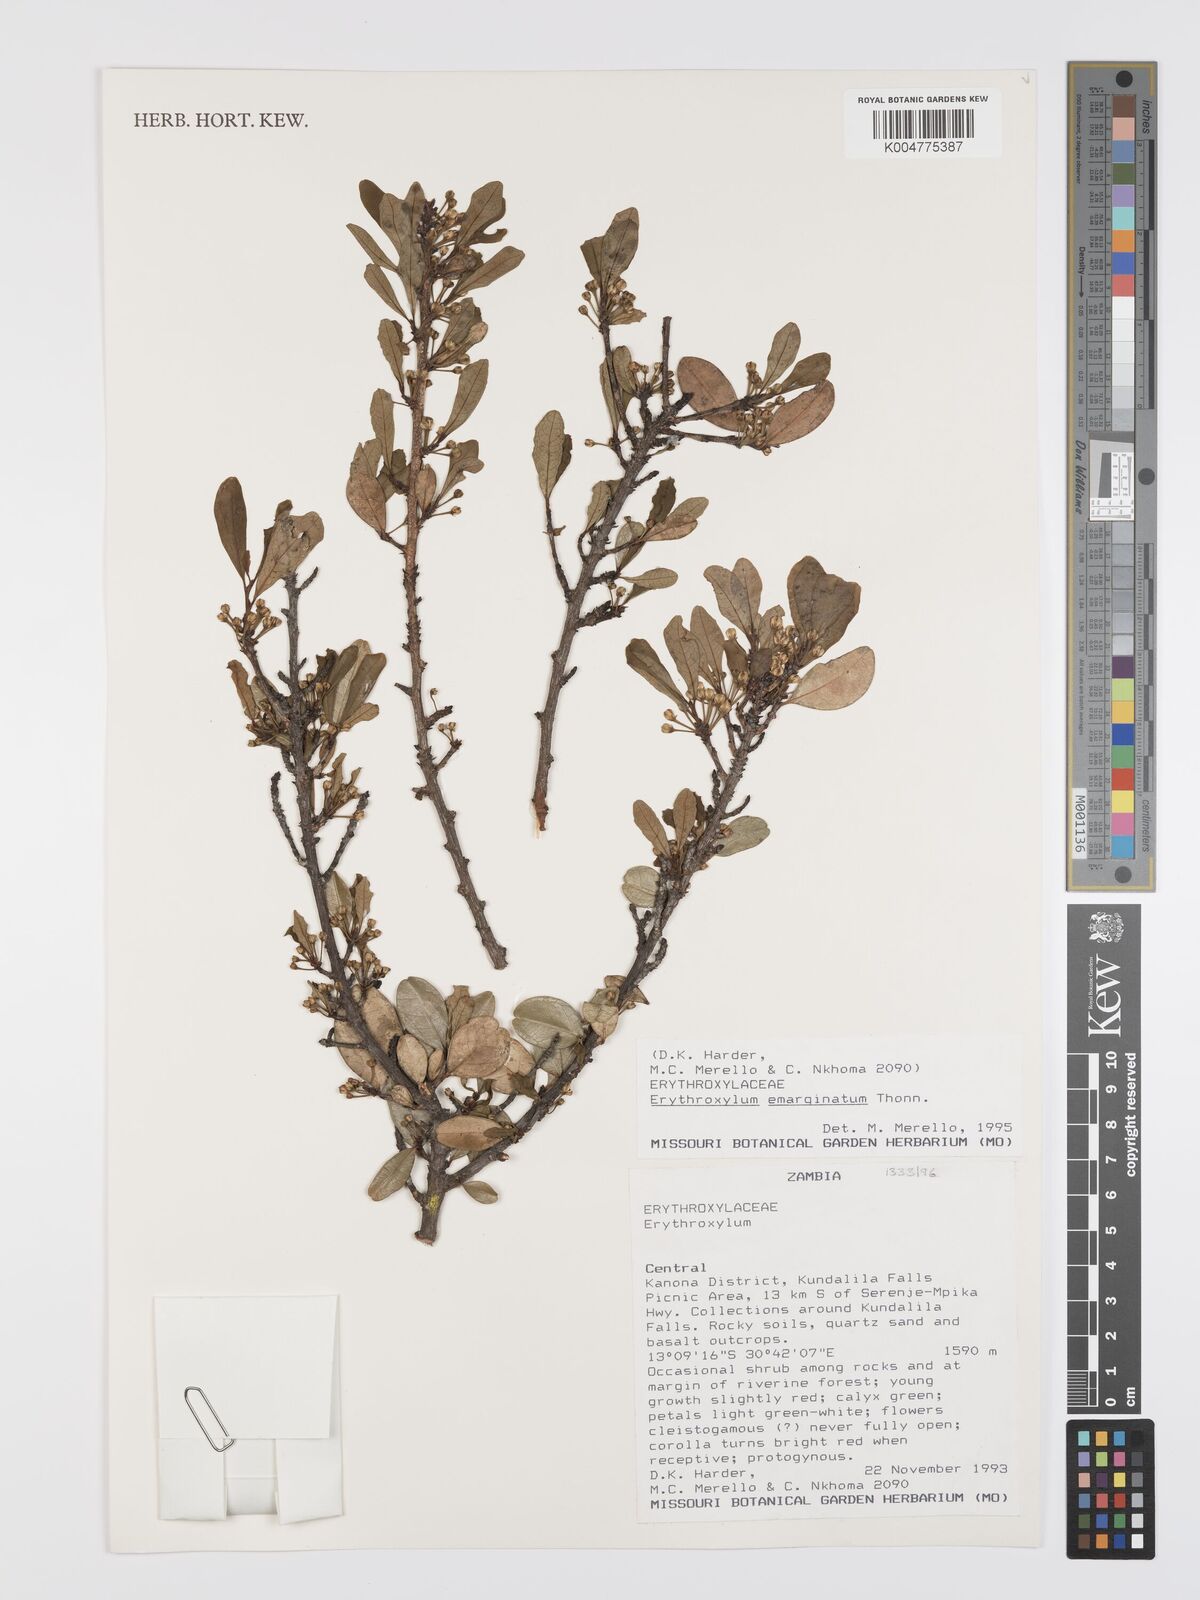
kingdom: Plantae
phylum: Tracheophyta
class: Magnoliopsida
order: Malpighiales
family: Erythroxylaceae
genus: Erythroxylum
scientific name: Erythroxylum emarginatum
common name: African coca-tree
